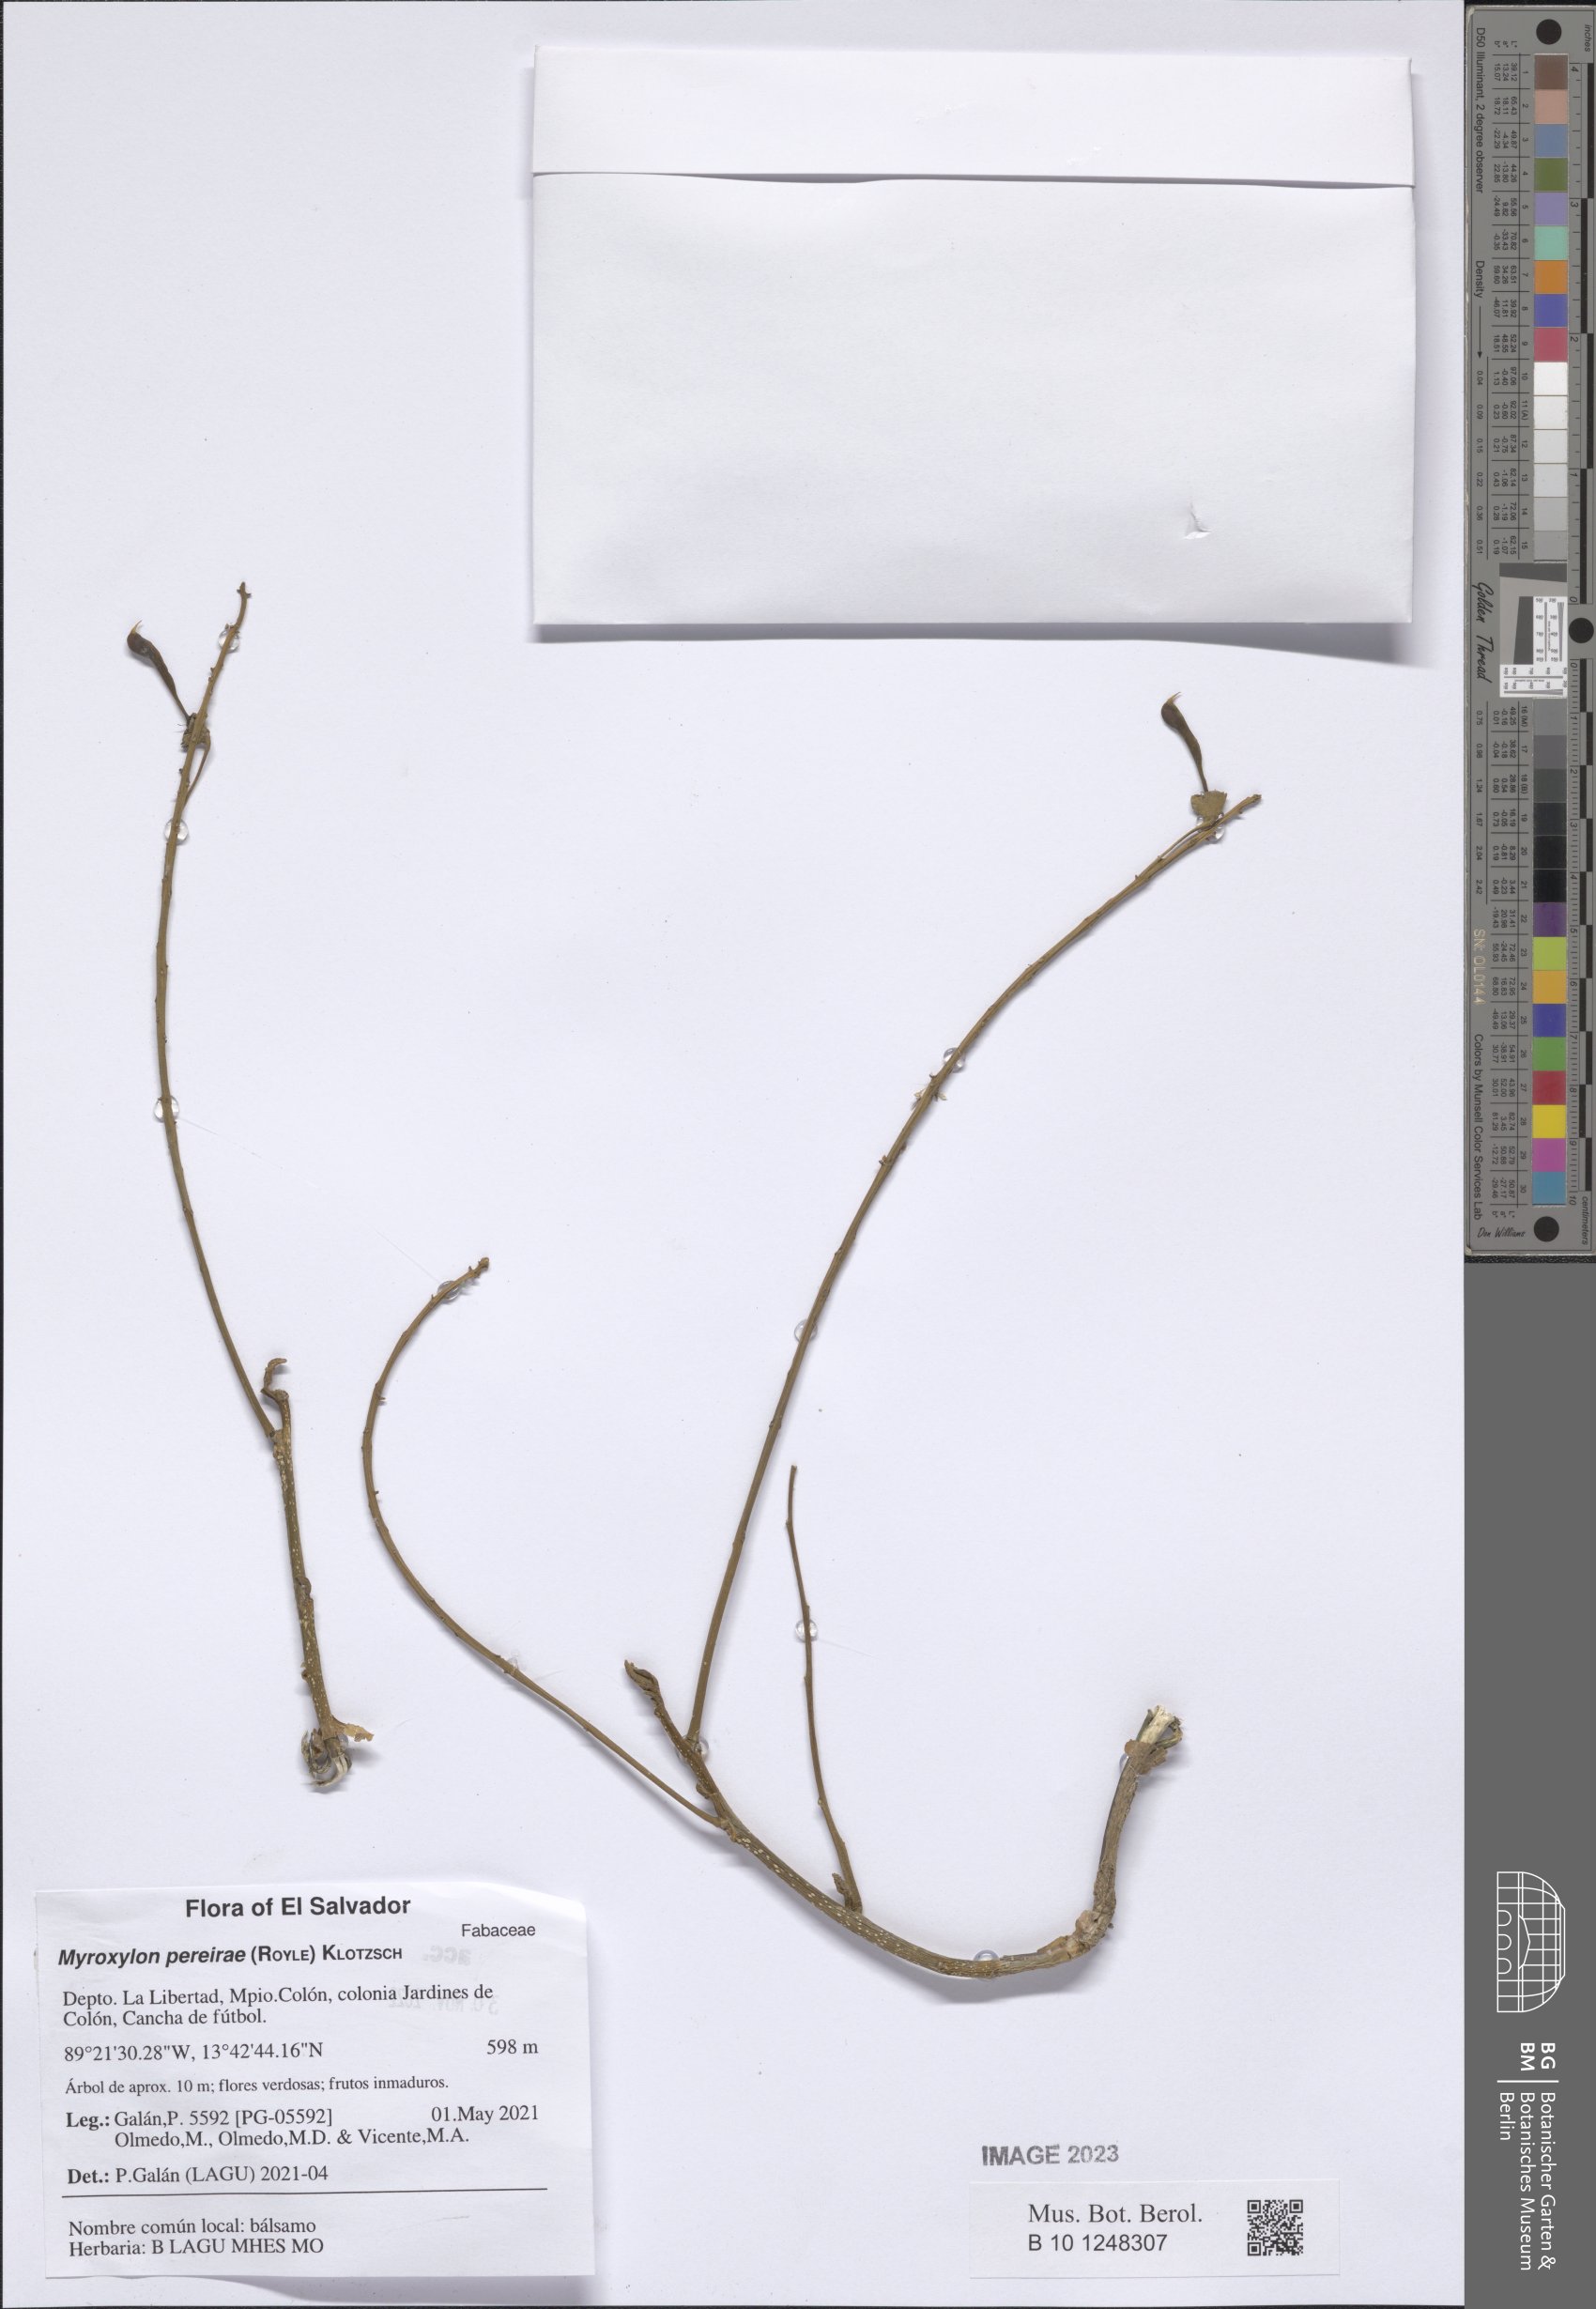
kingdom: Plantae
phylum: Tracheophyta
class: Magnoliopsida
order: Fabales
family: Fabaceae
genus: Myroxylon
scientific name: Myroxylon balsamum
